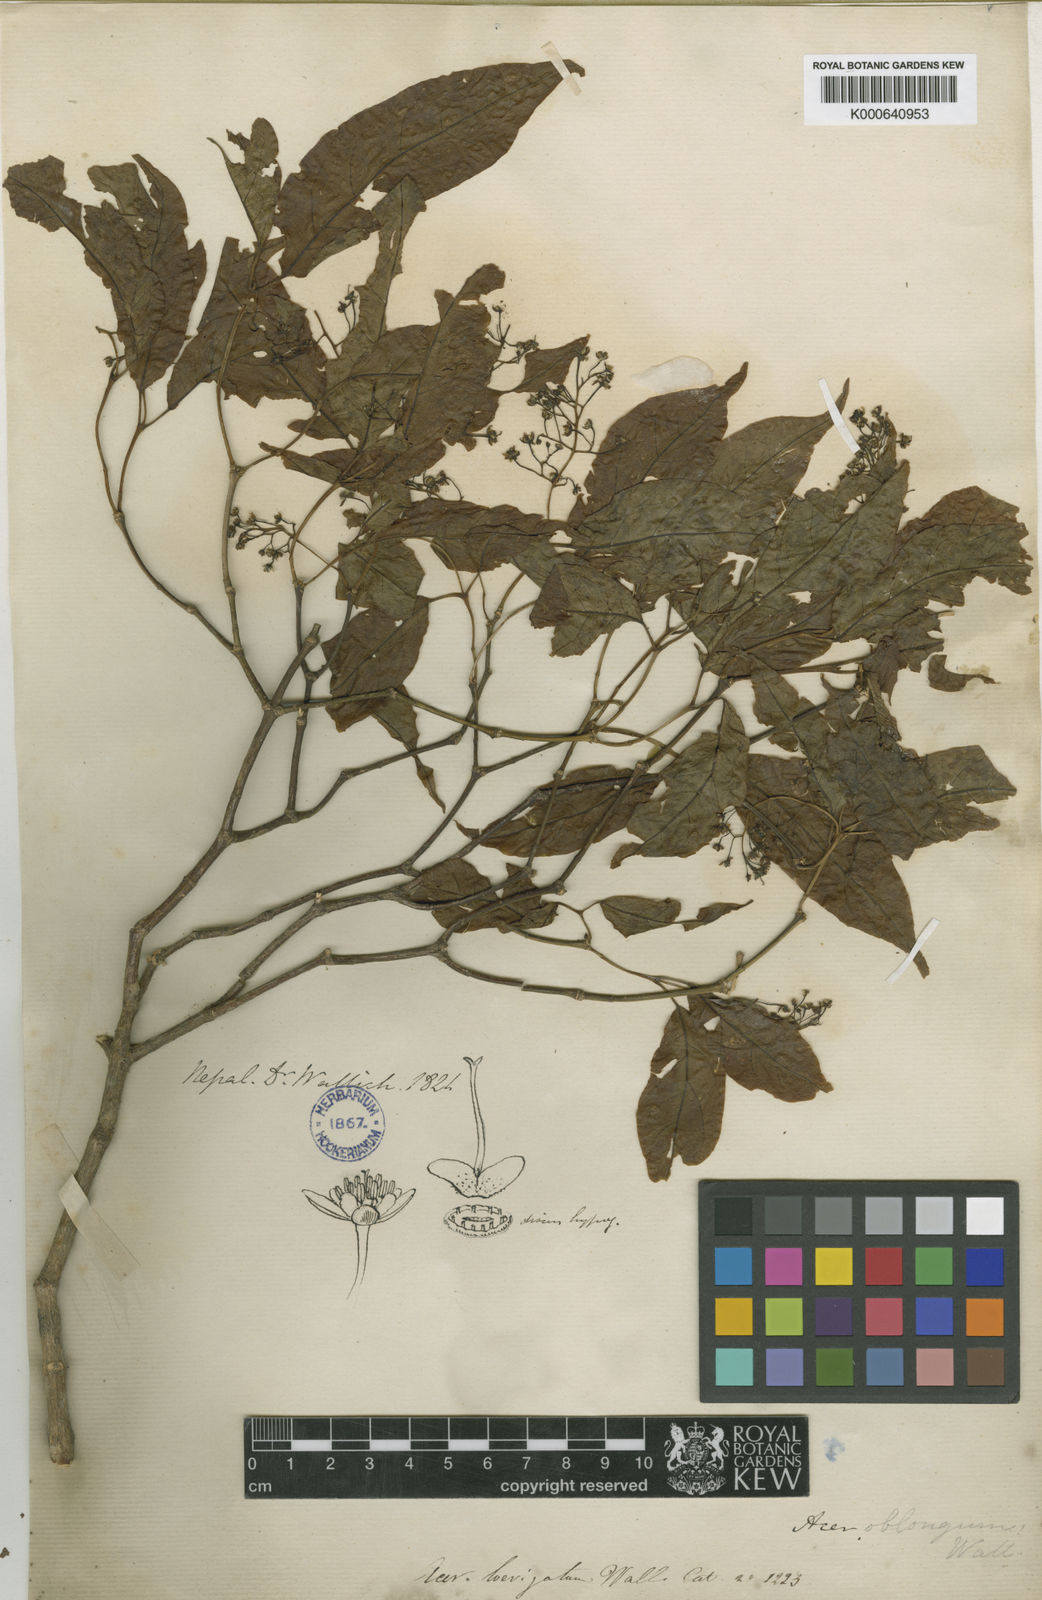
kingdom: Plantae
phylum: Tracheophyta
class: Magnoliopsida
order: Sapindales
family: Sapindaceae
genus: Acer
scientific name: Acer laevigatum
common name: Nepal maple
